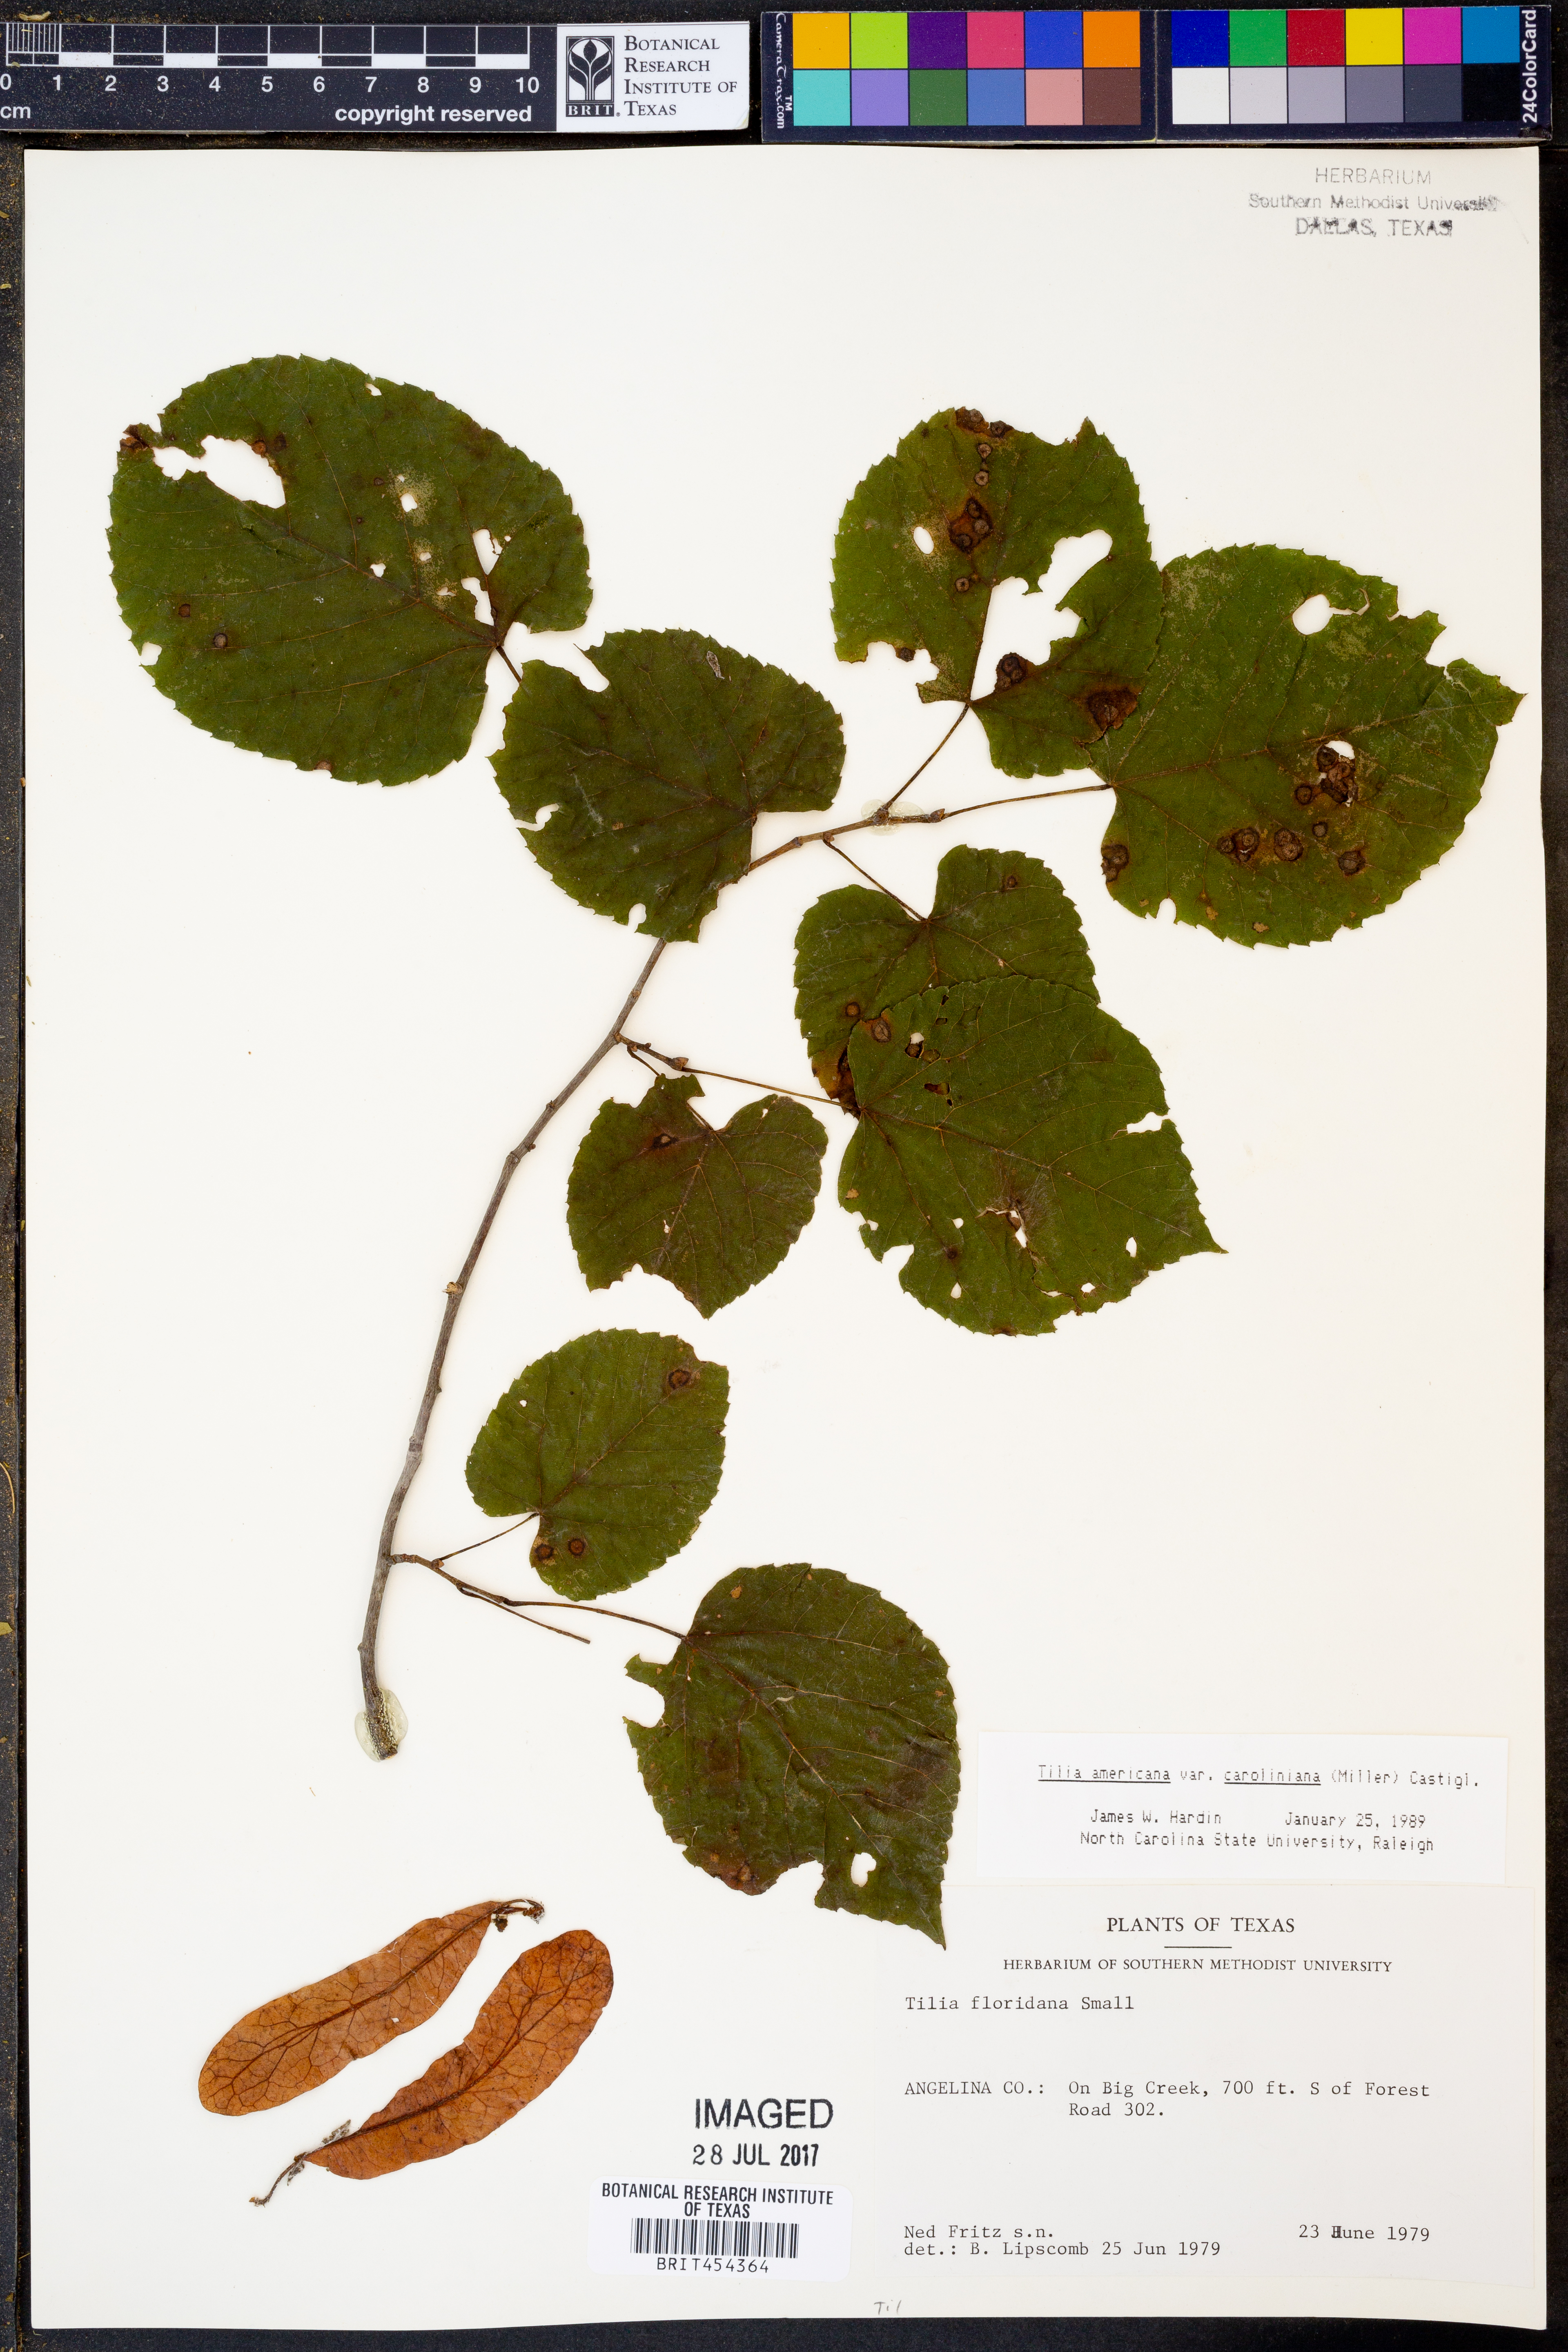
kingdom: Plantae
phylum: Tracheophyta
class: Magnoliopsida
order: Malvales
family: Malvaceae
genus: Tilia
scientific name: Tilia americana
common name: Basswood
